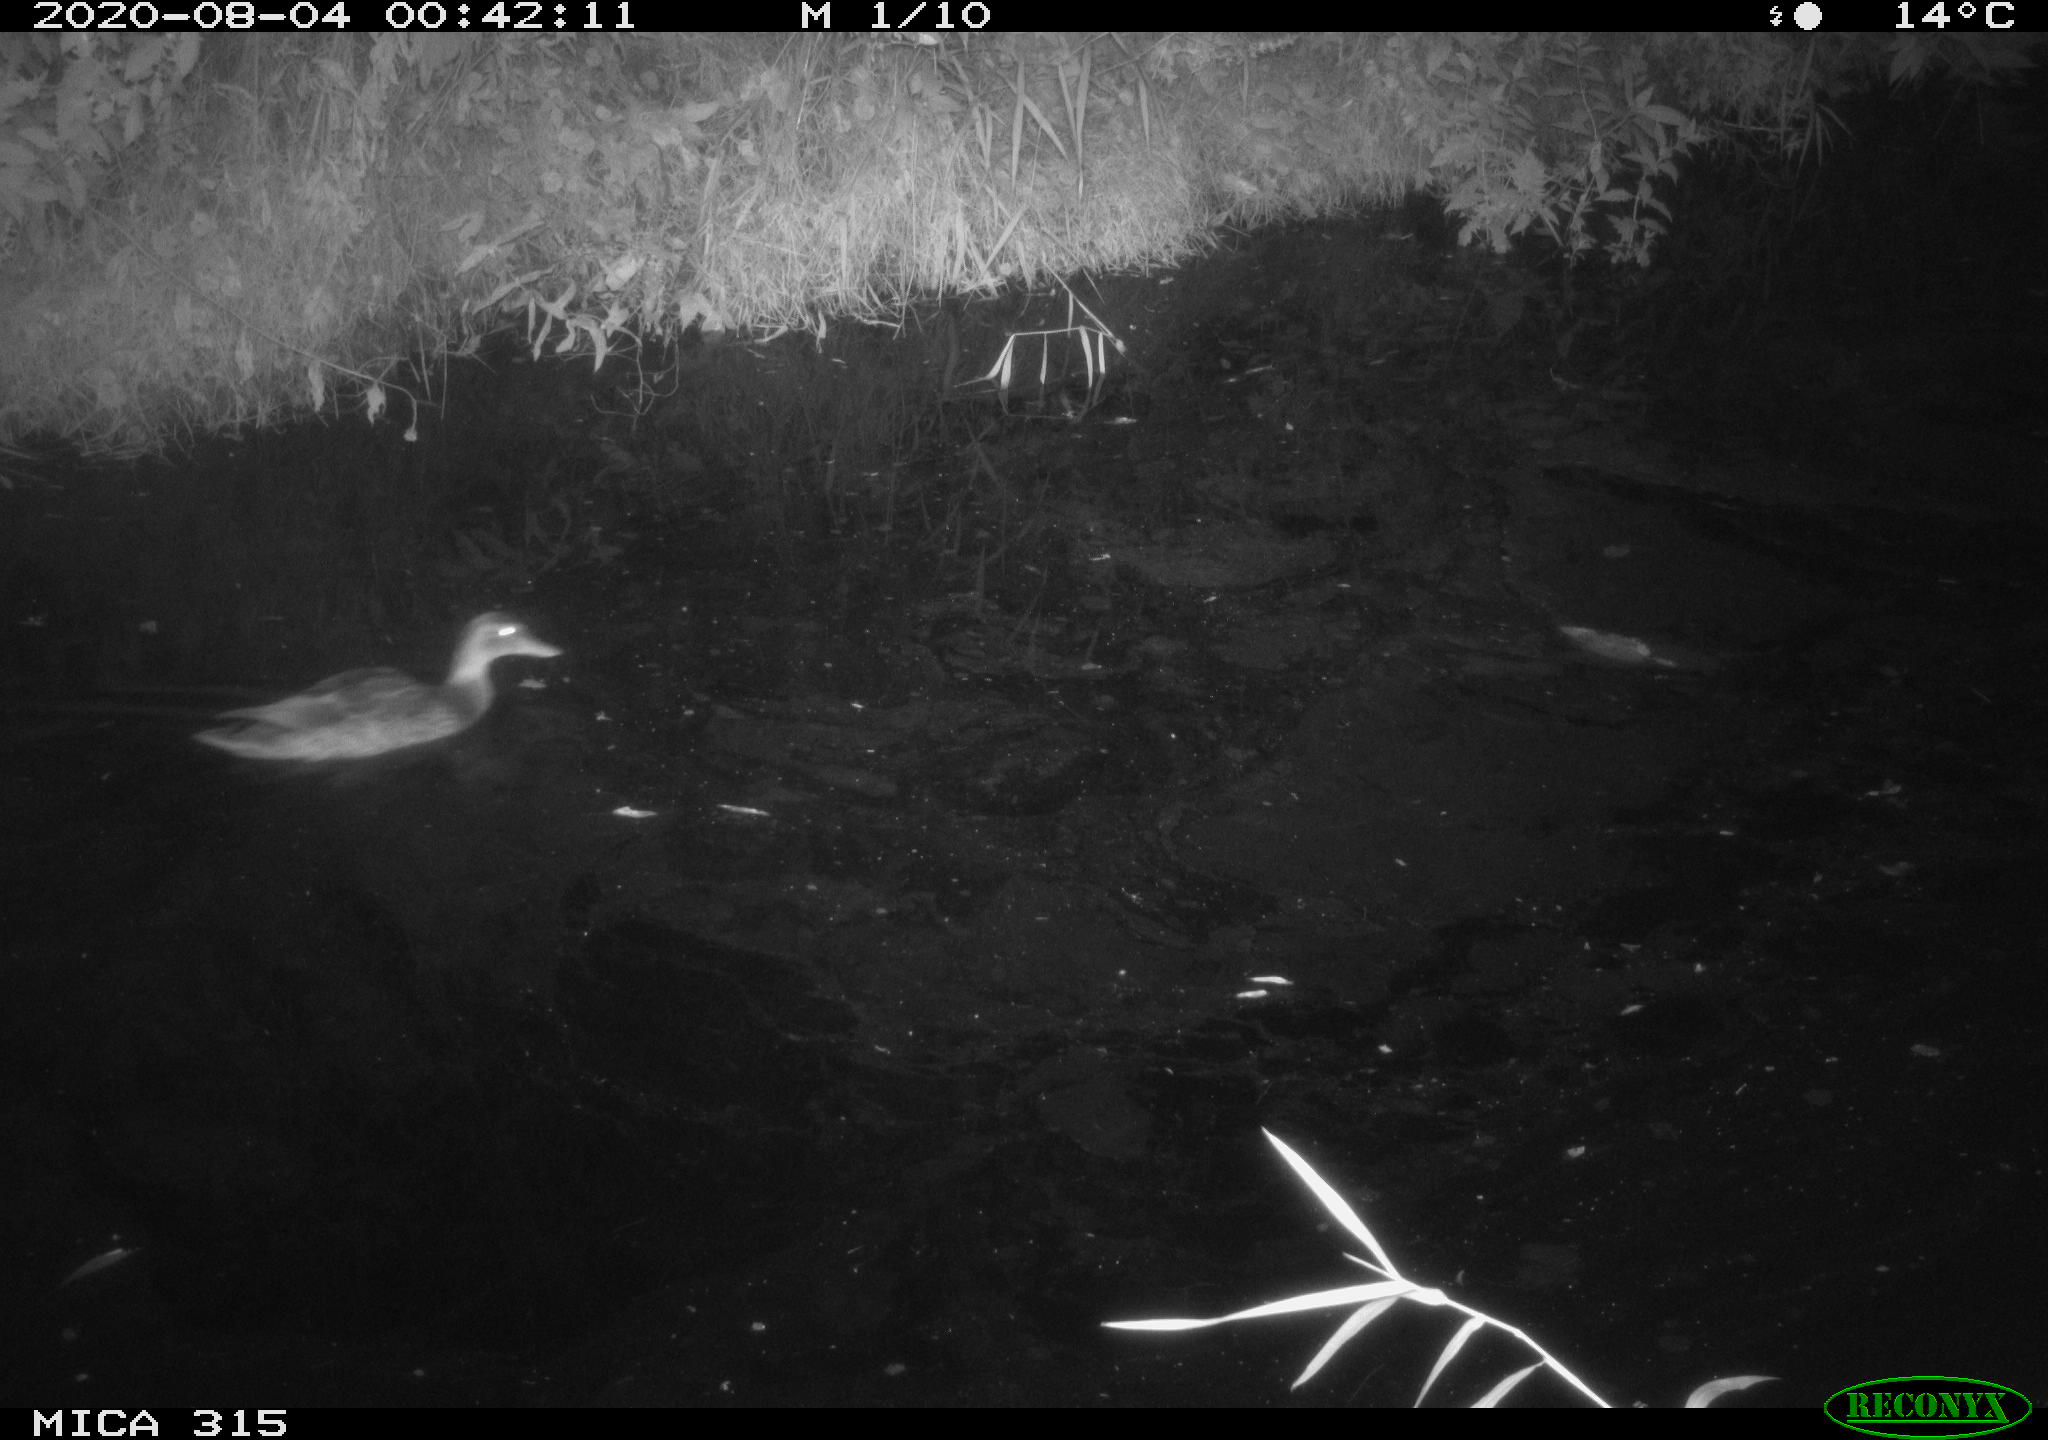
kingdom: Animalia
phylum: Chordata
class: Aves
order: Anseriformes
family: Anatidae
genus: Anas
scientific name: Anas platyrhynchos
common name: Mallard
